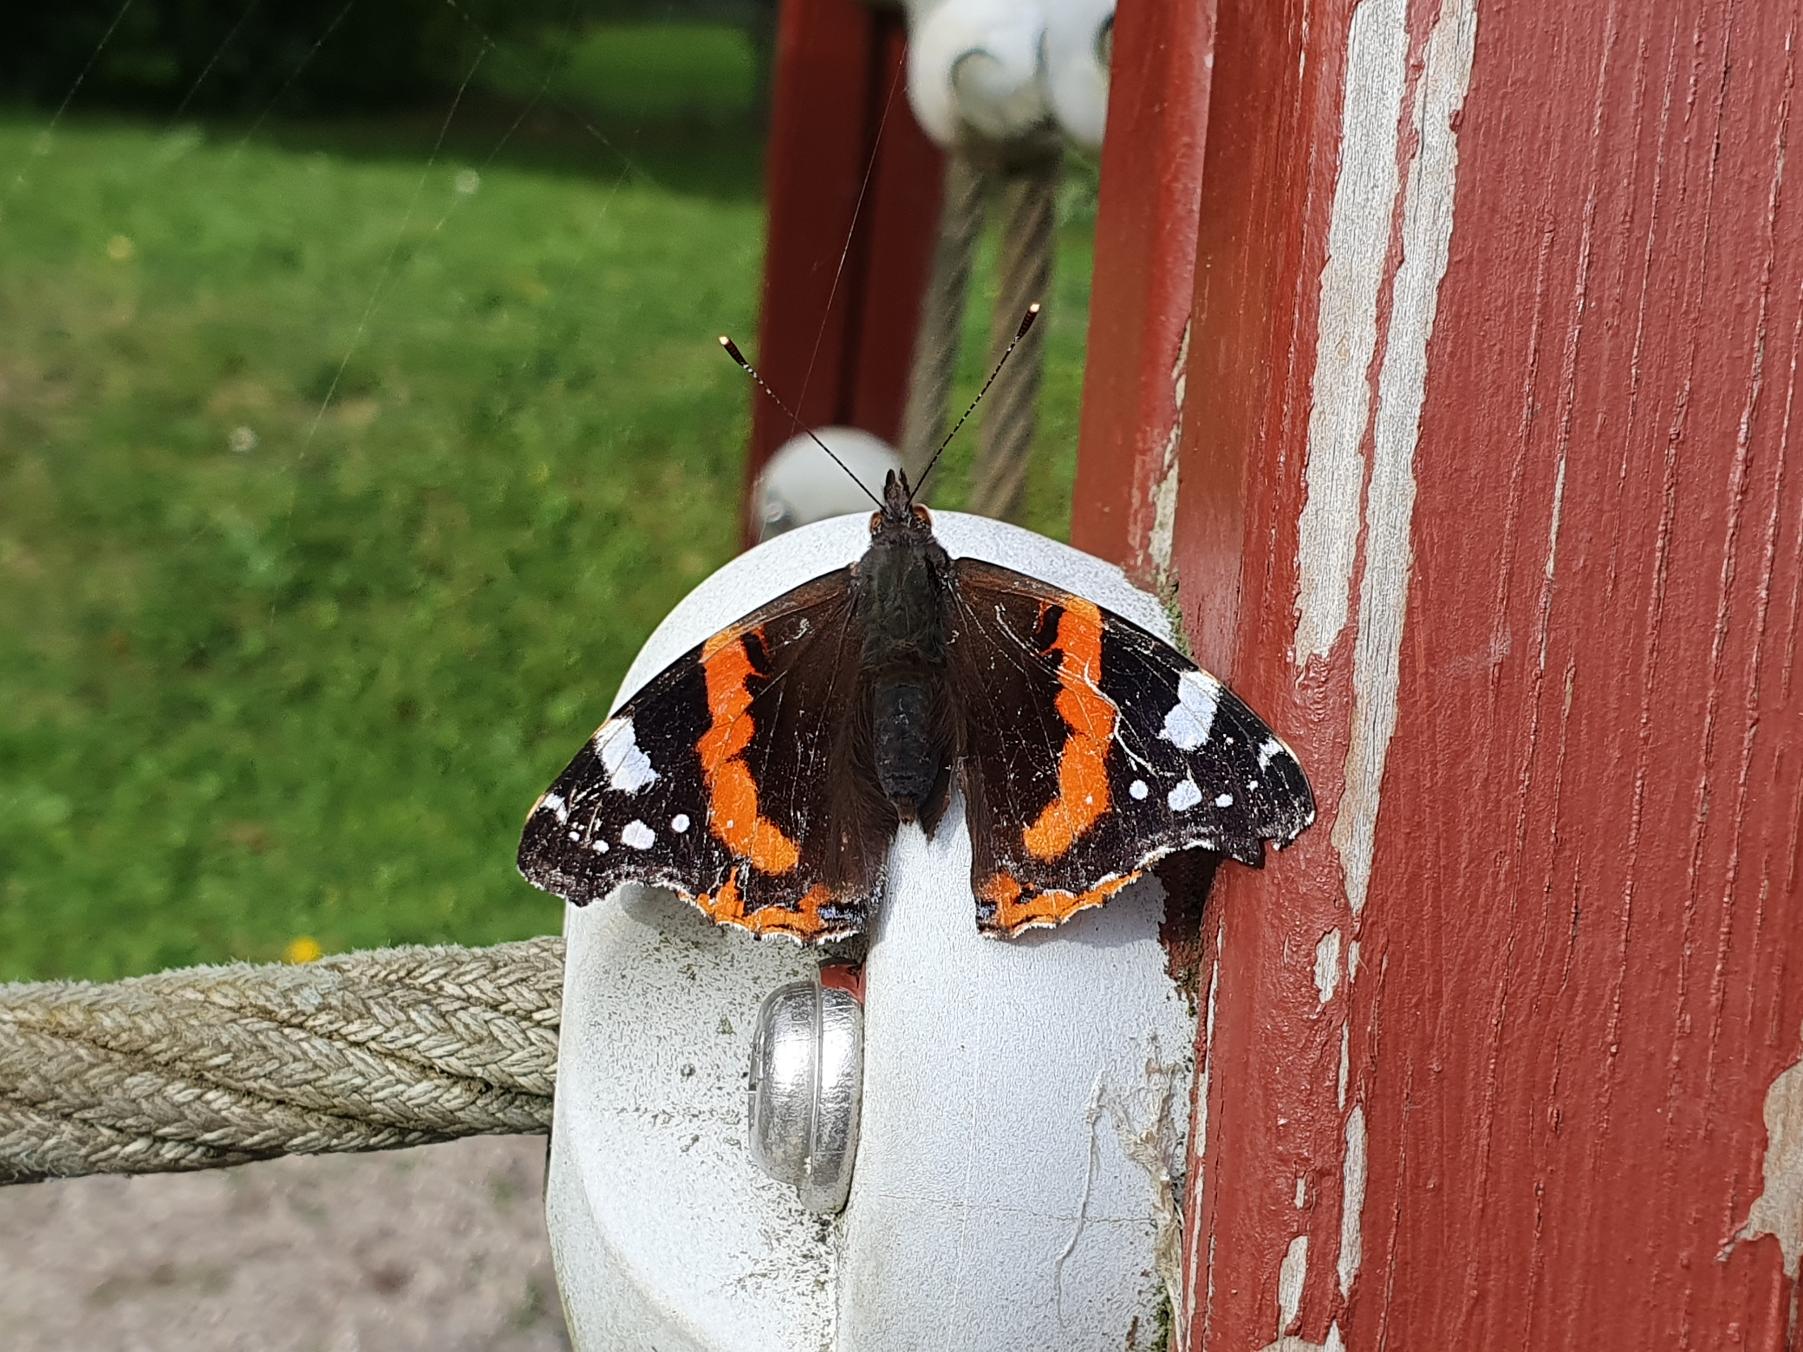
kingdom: Animalia
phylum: Arthropoda
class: Insecta
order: Lepidoptera
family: Nymphalidae
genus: Vanessa
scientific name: Vanessa atalanta
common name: Admiral
